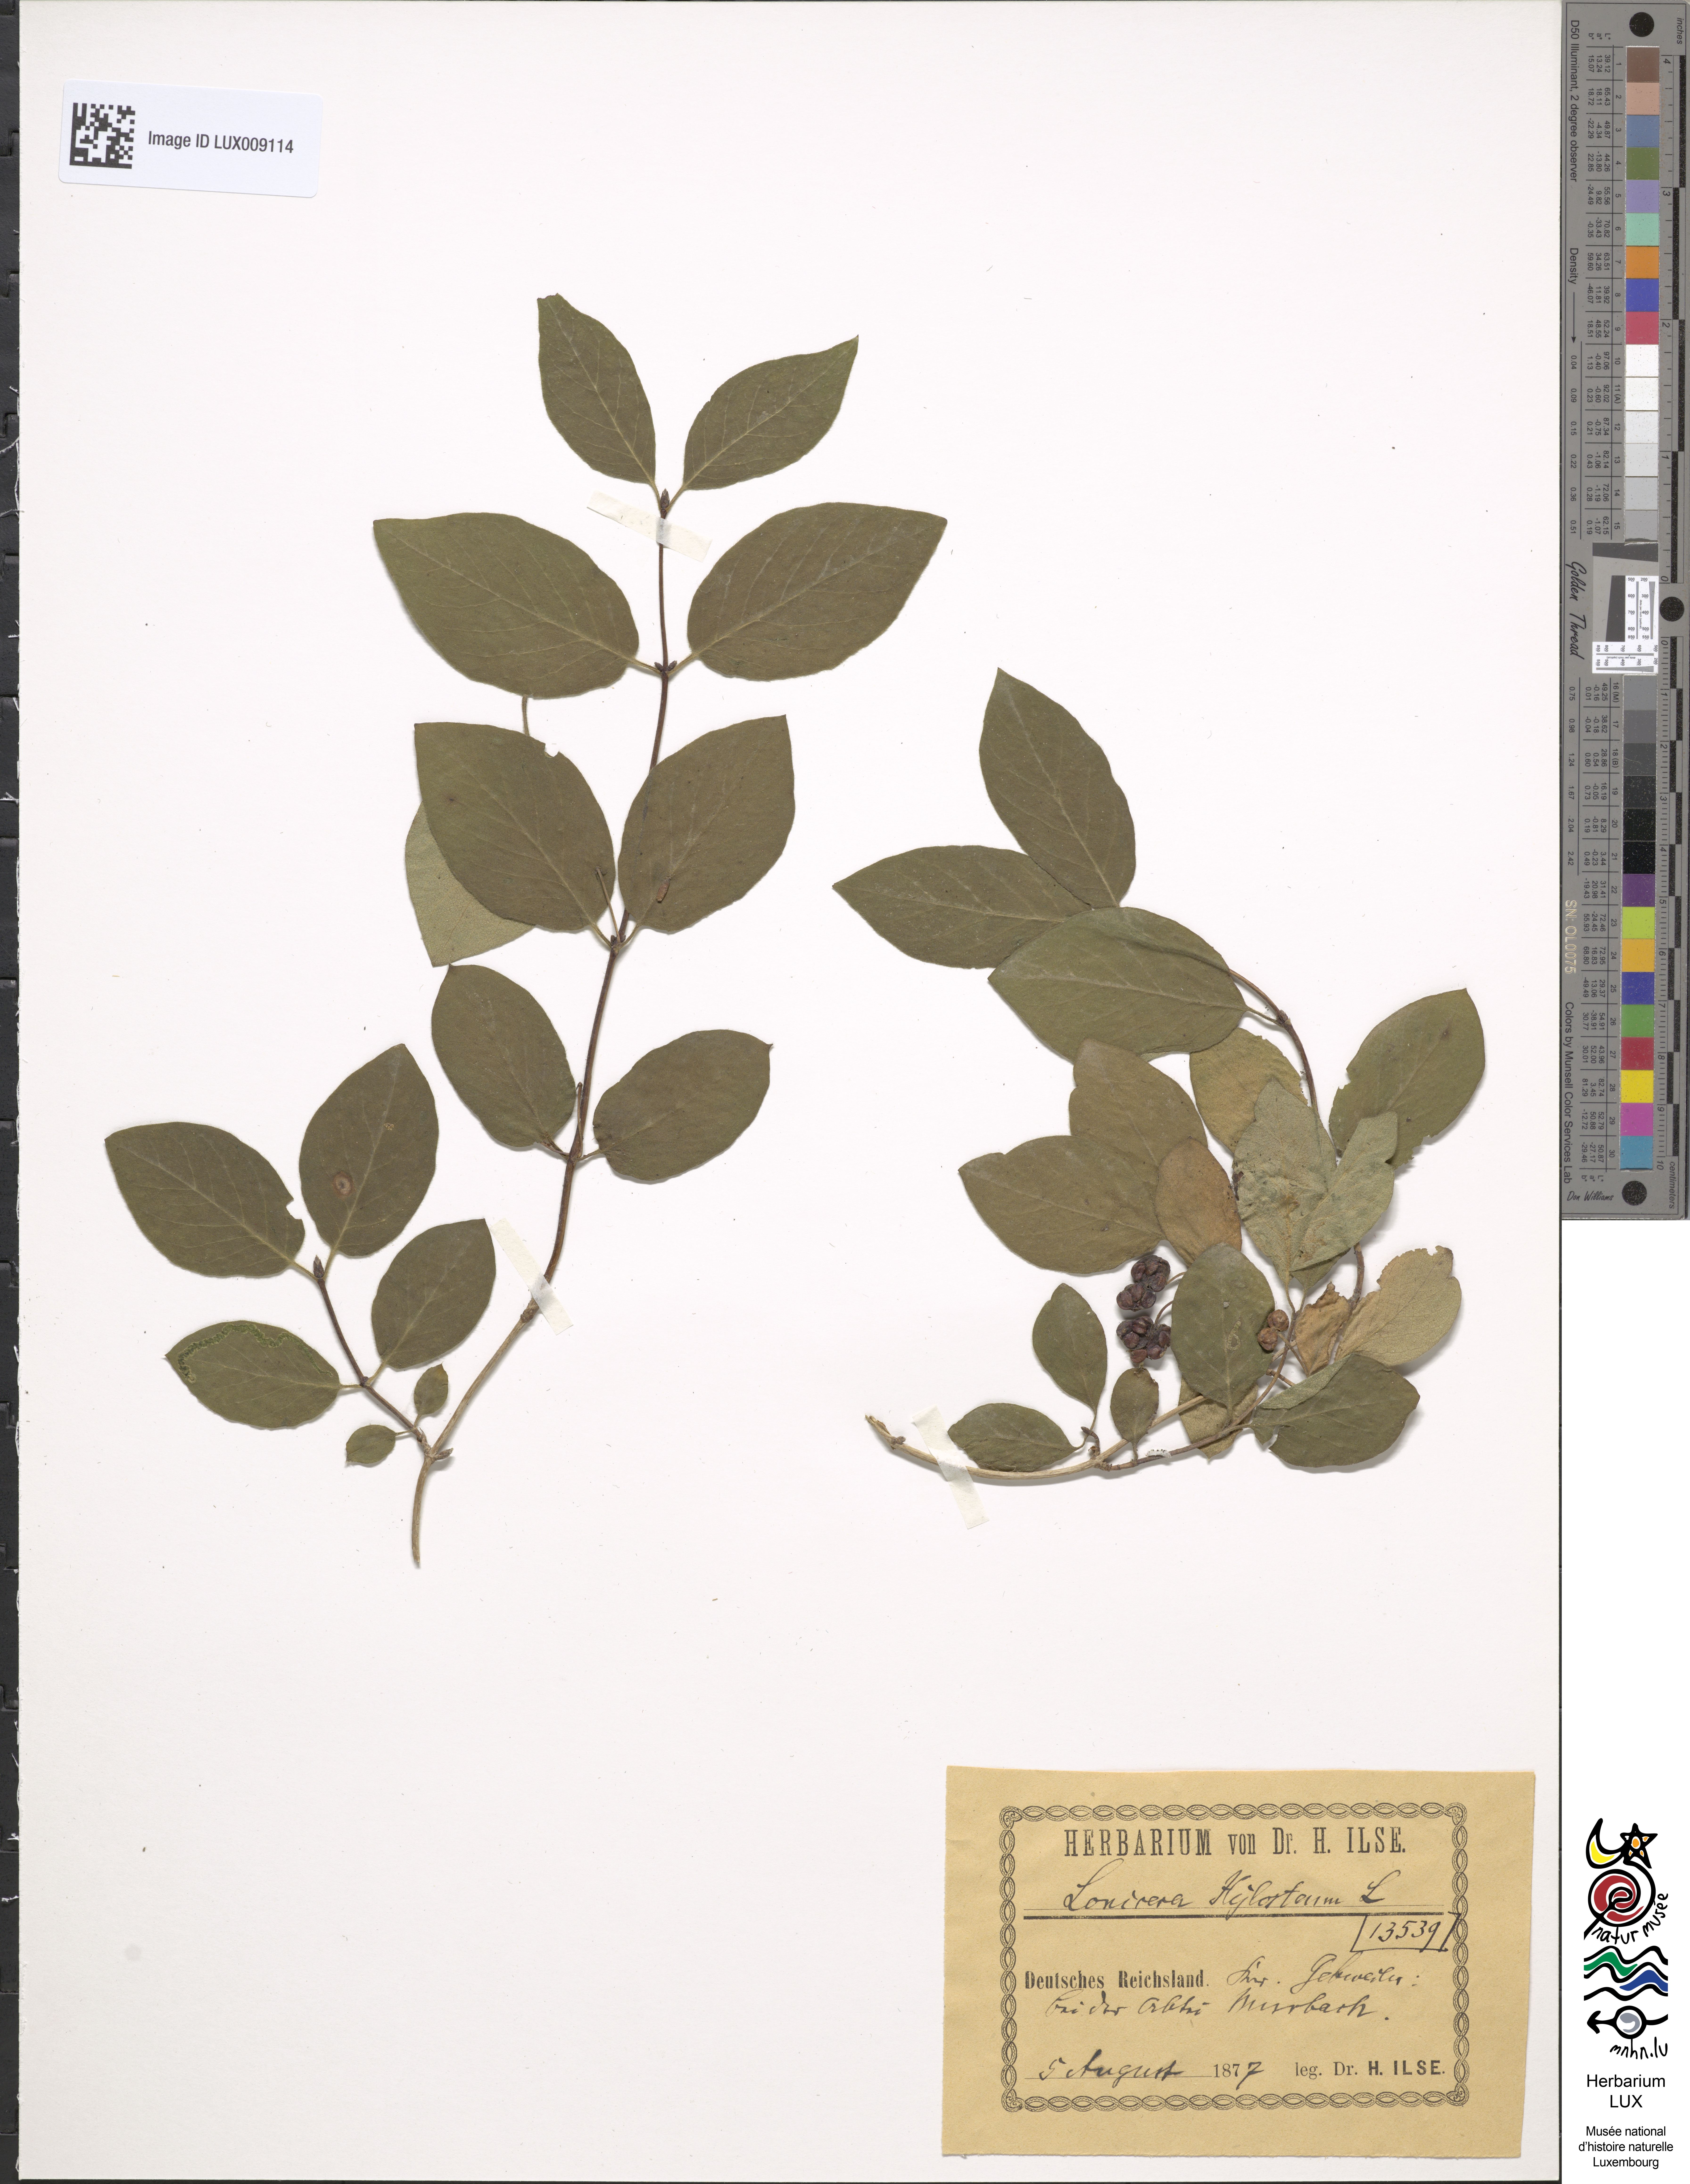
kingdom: Plantae
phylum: Tracheophyta
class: Magnoliopsida
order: Dipsacales
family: Caprifoliaceae
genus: Lonicera
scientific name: Lonicera xylosteum
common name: Fly honeysuckle
